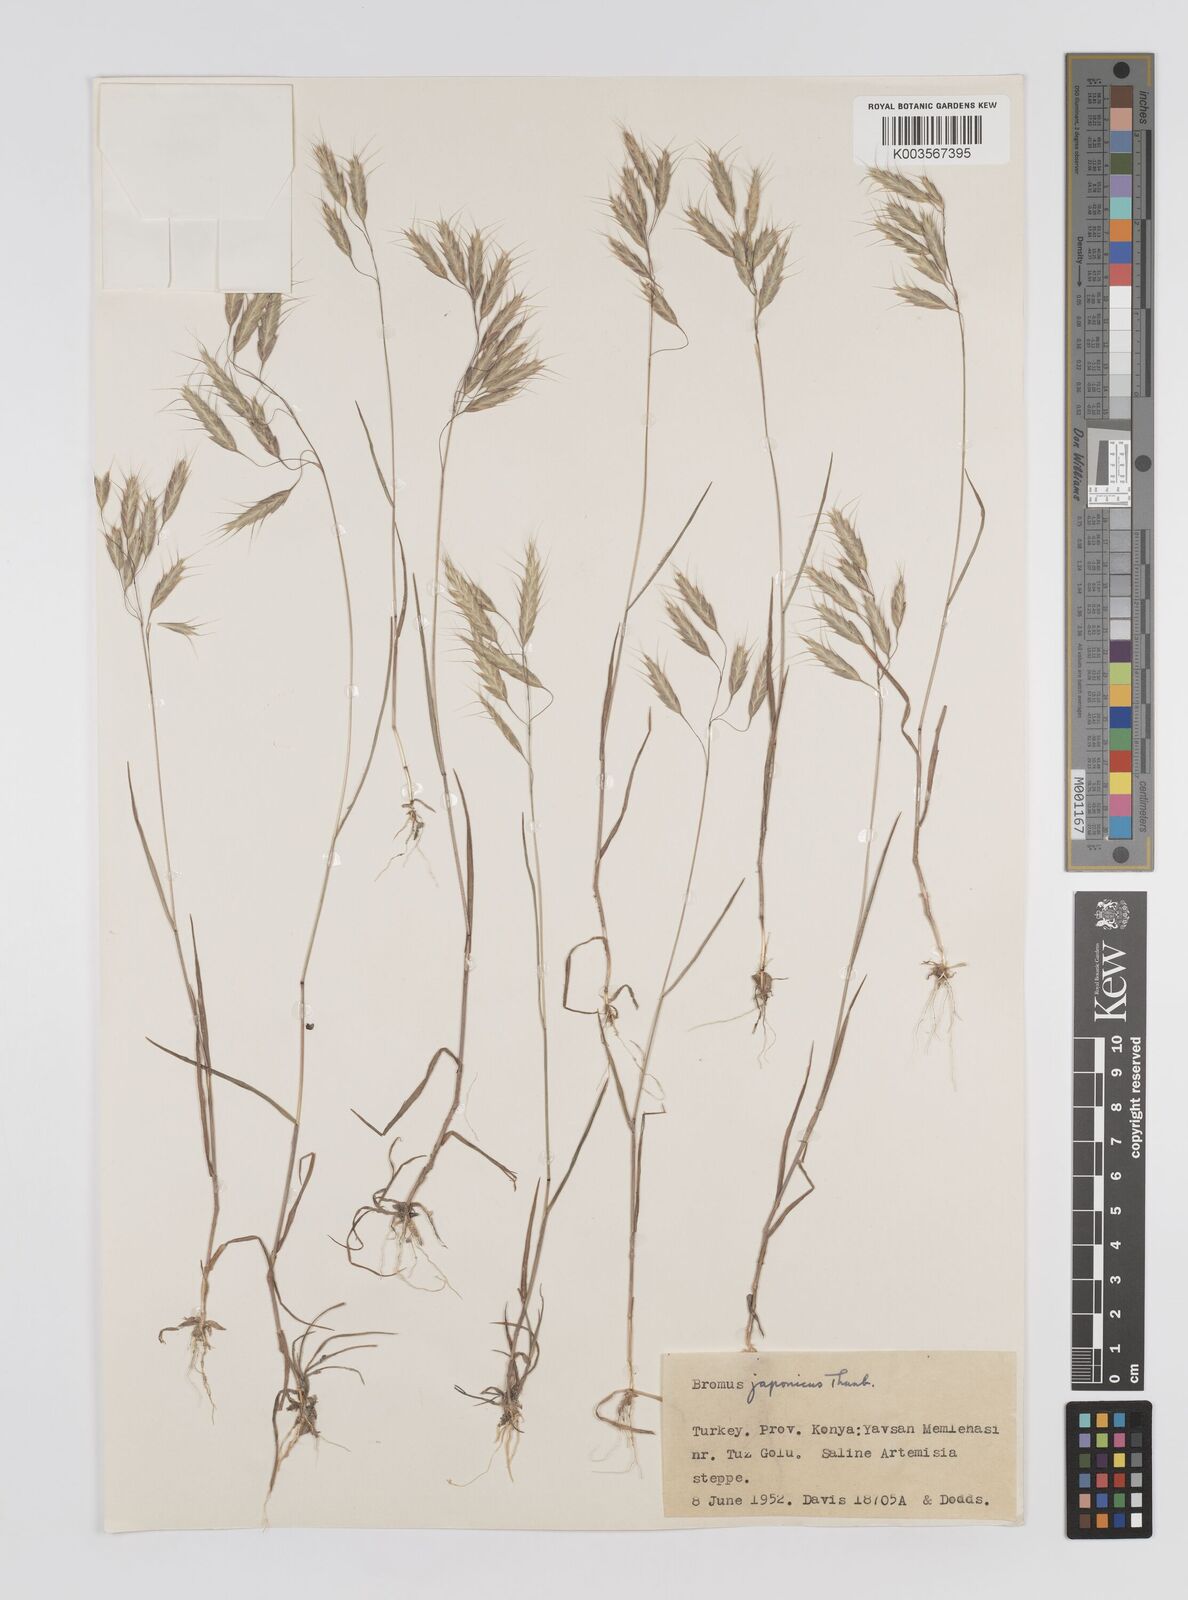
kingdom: Plantae
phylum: Tracheophyta
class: Liliopsida
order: Poales
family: Poaceae
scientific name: Poaceae
